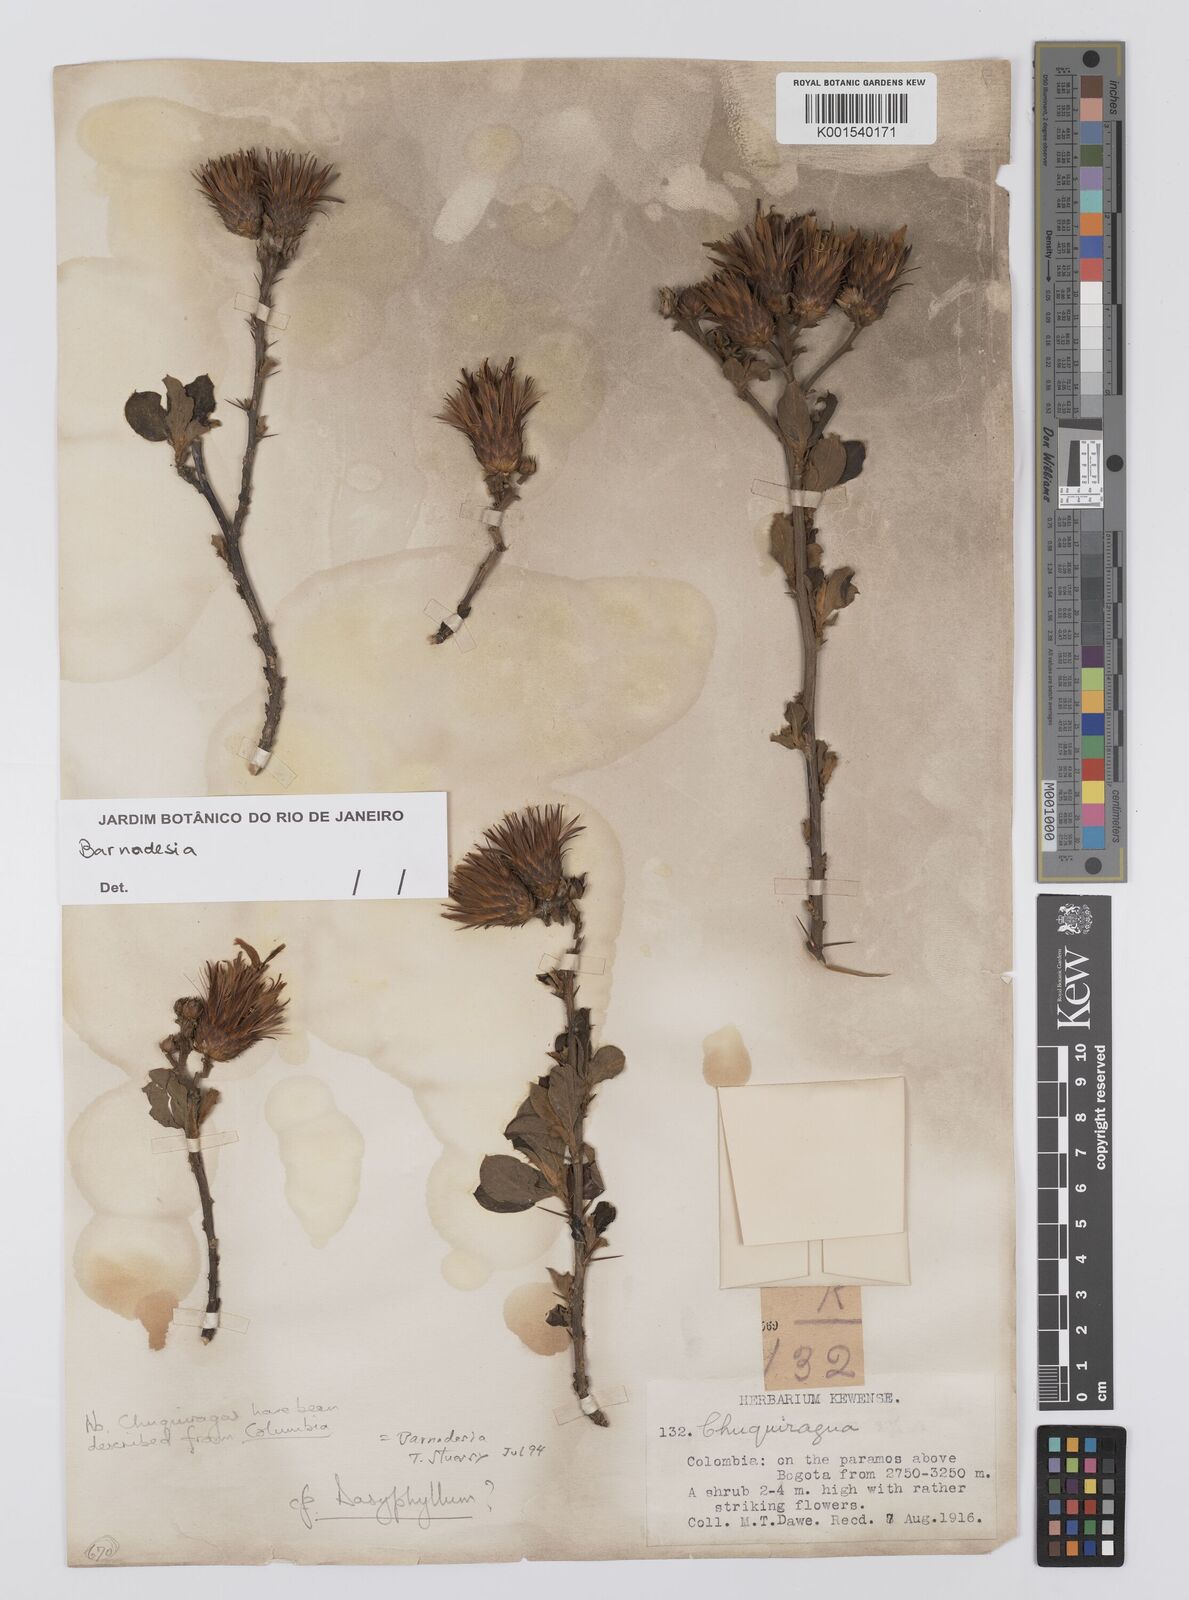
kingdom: Plantae
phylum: Tracheophyta
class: Magnoliopsida
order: Asterales
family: Asteraceae
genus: Barnadesia
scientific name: Barnadesia spinosa
